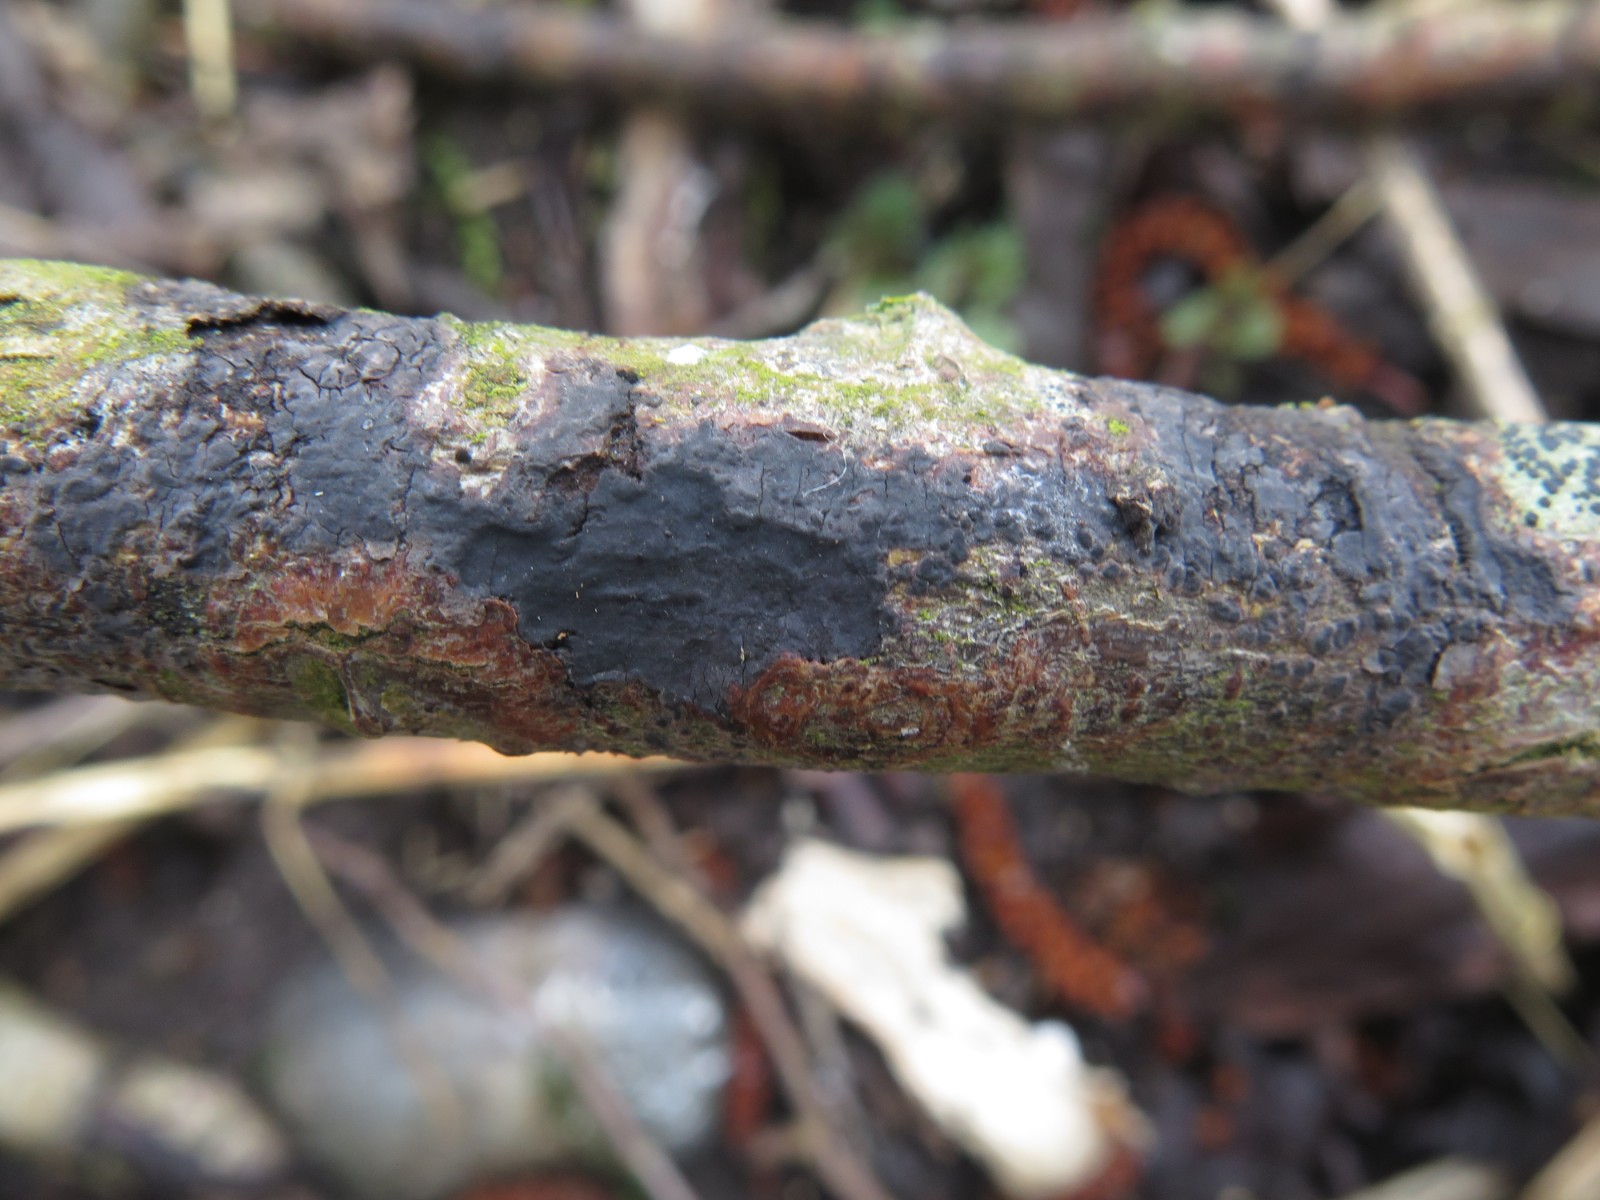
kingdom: Fungi
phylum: Basidiomycota
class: Agaricomycetes
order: Russulales
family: Peniophoraceae
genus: Peniophora
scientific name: Peniophora limitata
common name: mørkrandet voksskind
